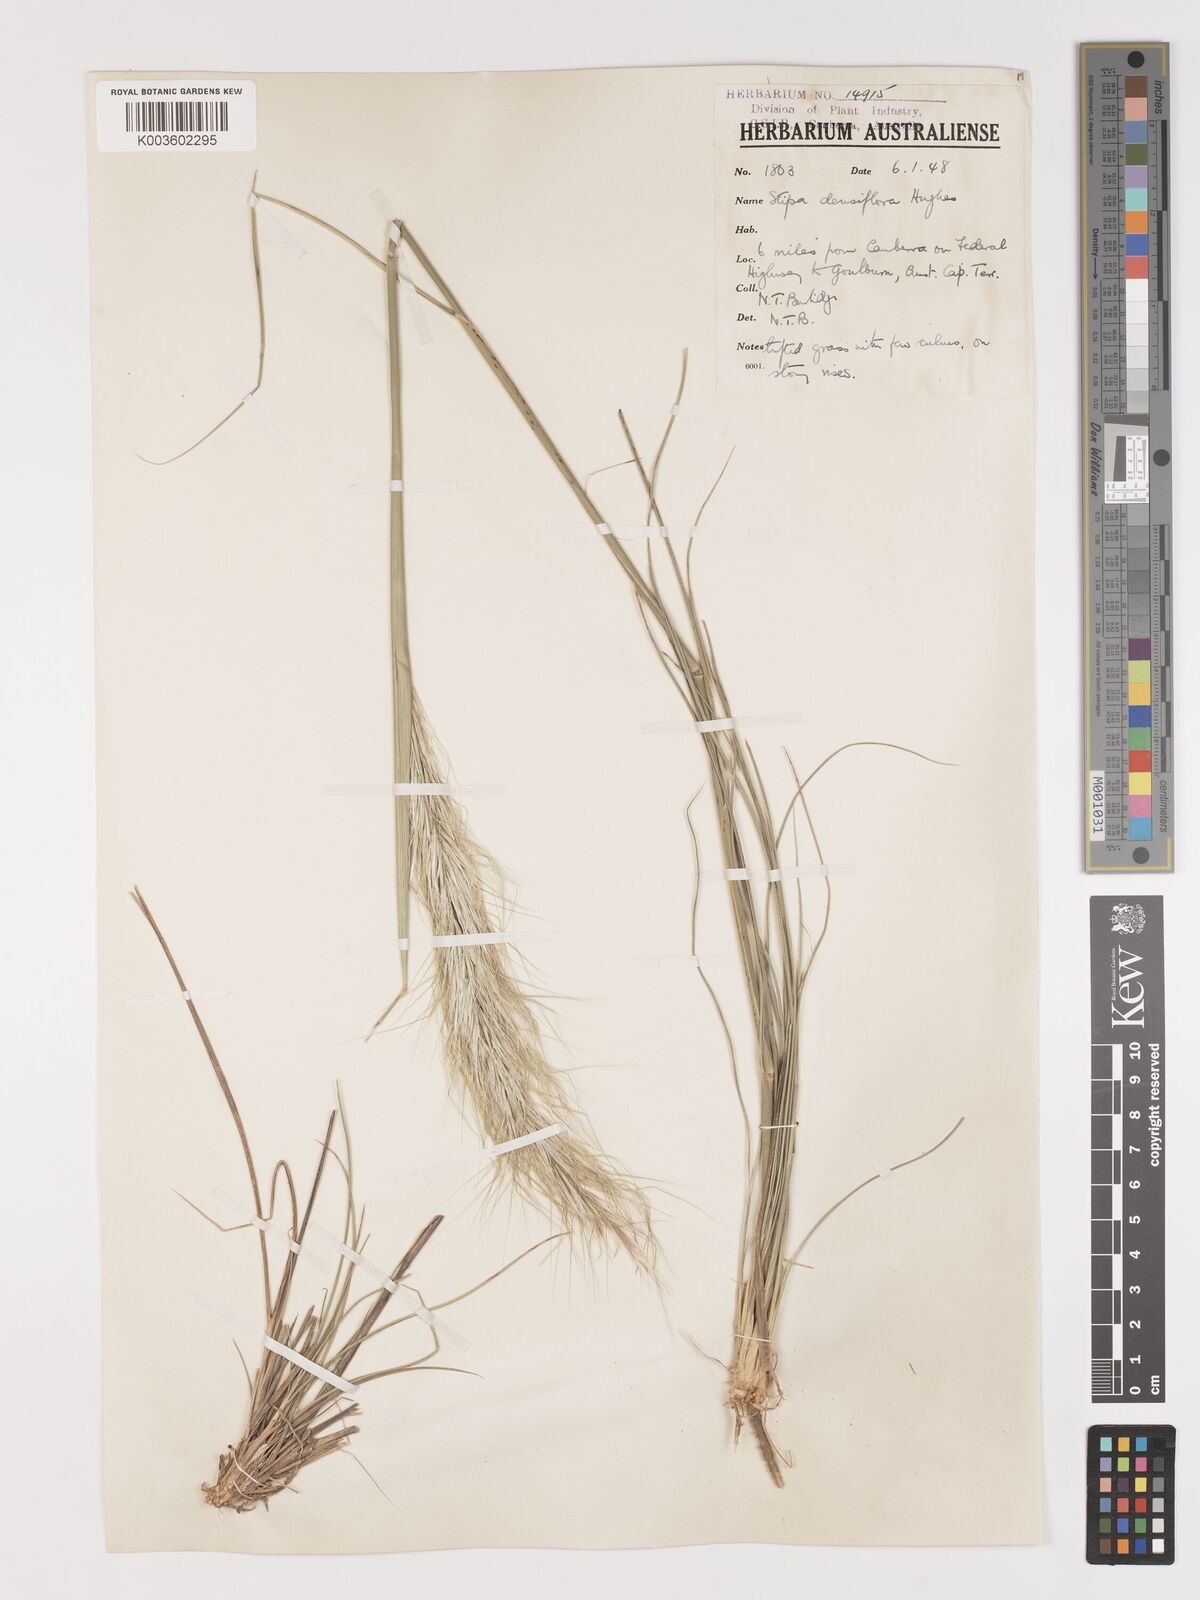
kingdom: Plantae
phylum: Tracheophyta
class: Liliopsida
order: Poales
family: Poaceae
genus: Stipa
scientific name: Stipa
